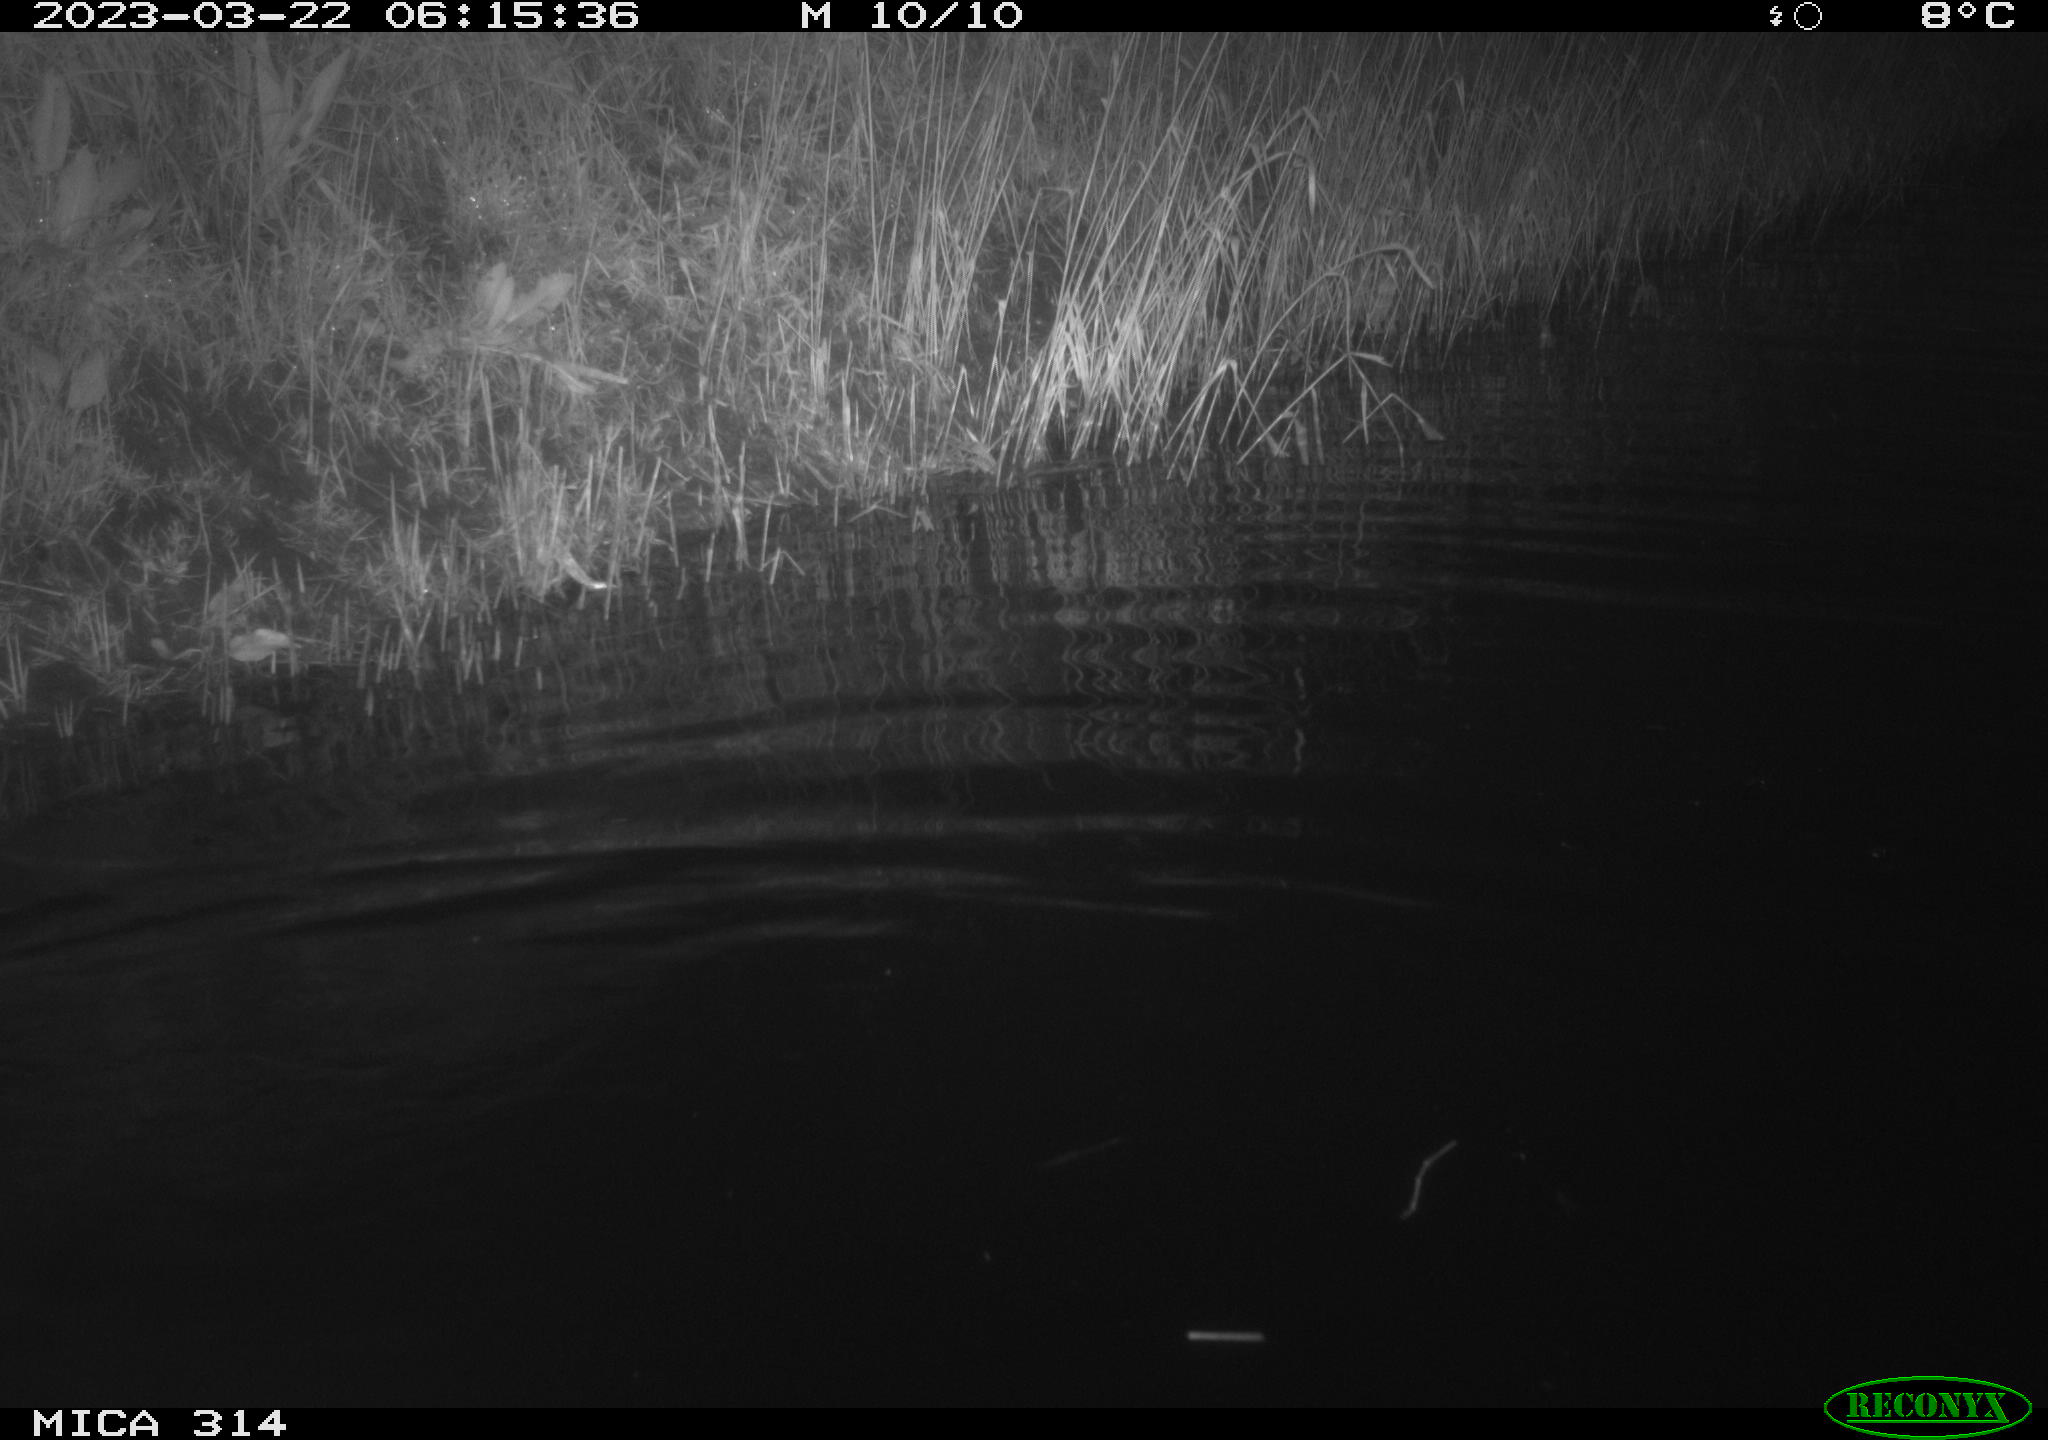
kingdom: Animalia
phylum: Chordata
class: Aves
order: Anseriformes
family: Anatidae
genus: Anas
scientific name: Anas
